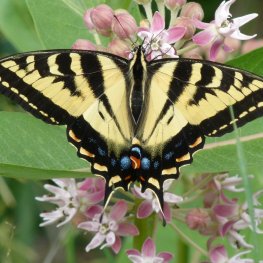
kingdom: Animalia
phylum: Arthropoda
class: Insecta
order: Lepidoptera
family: Papilionidae
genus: Pterourus
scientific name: Pterourus canadensis
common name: Canadian Tiger Swallowtail
